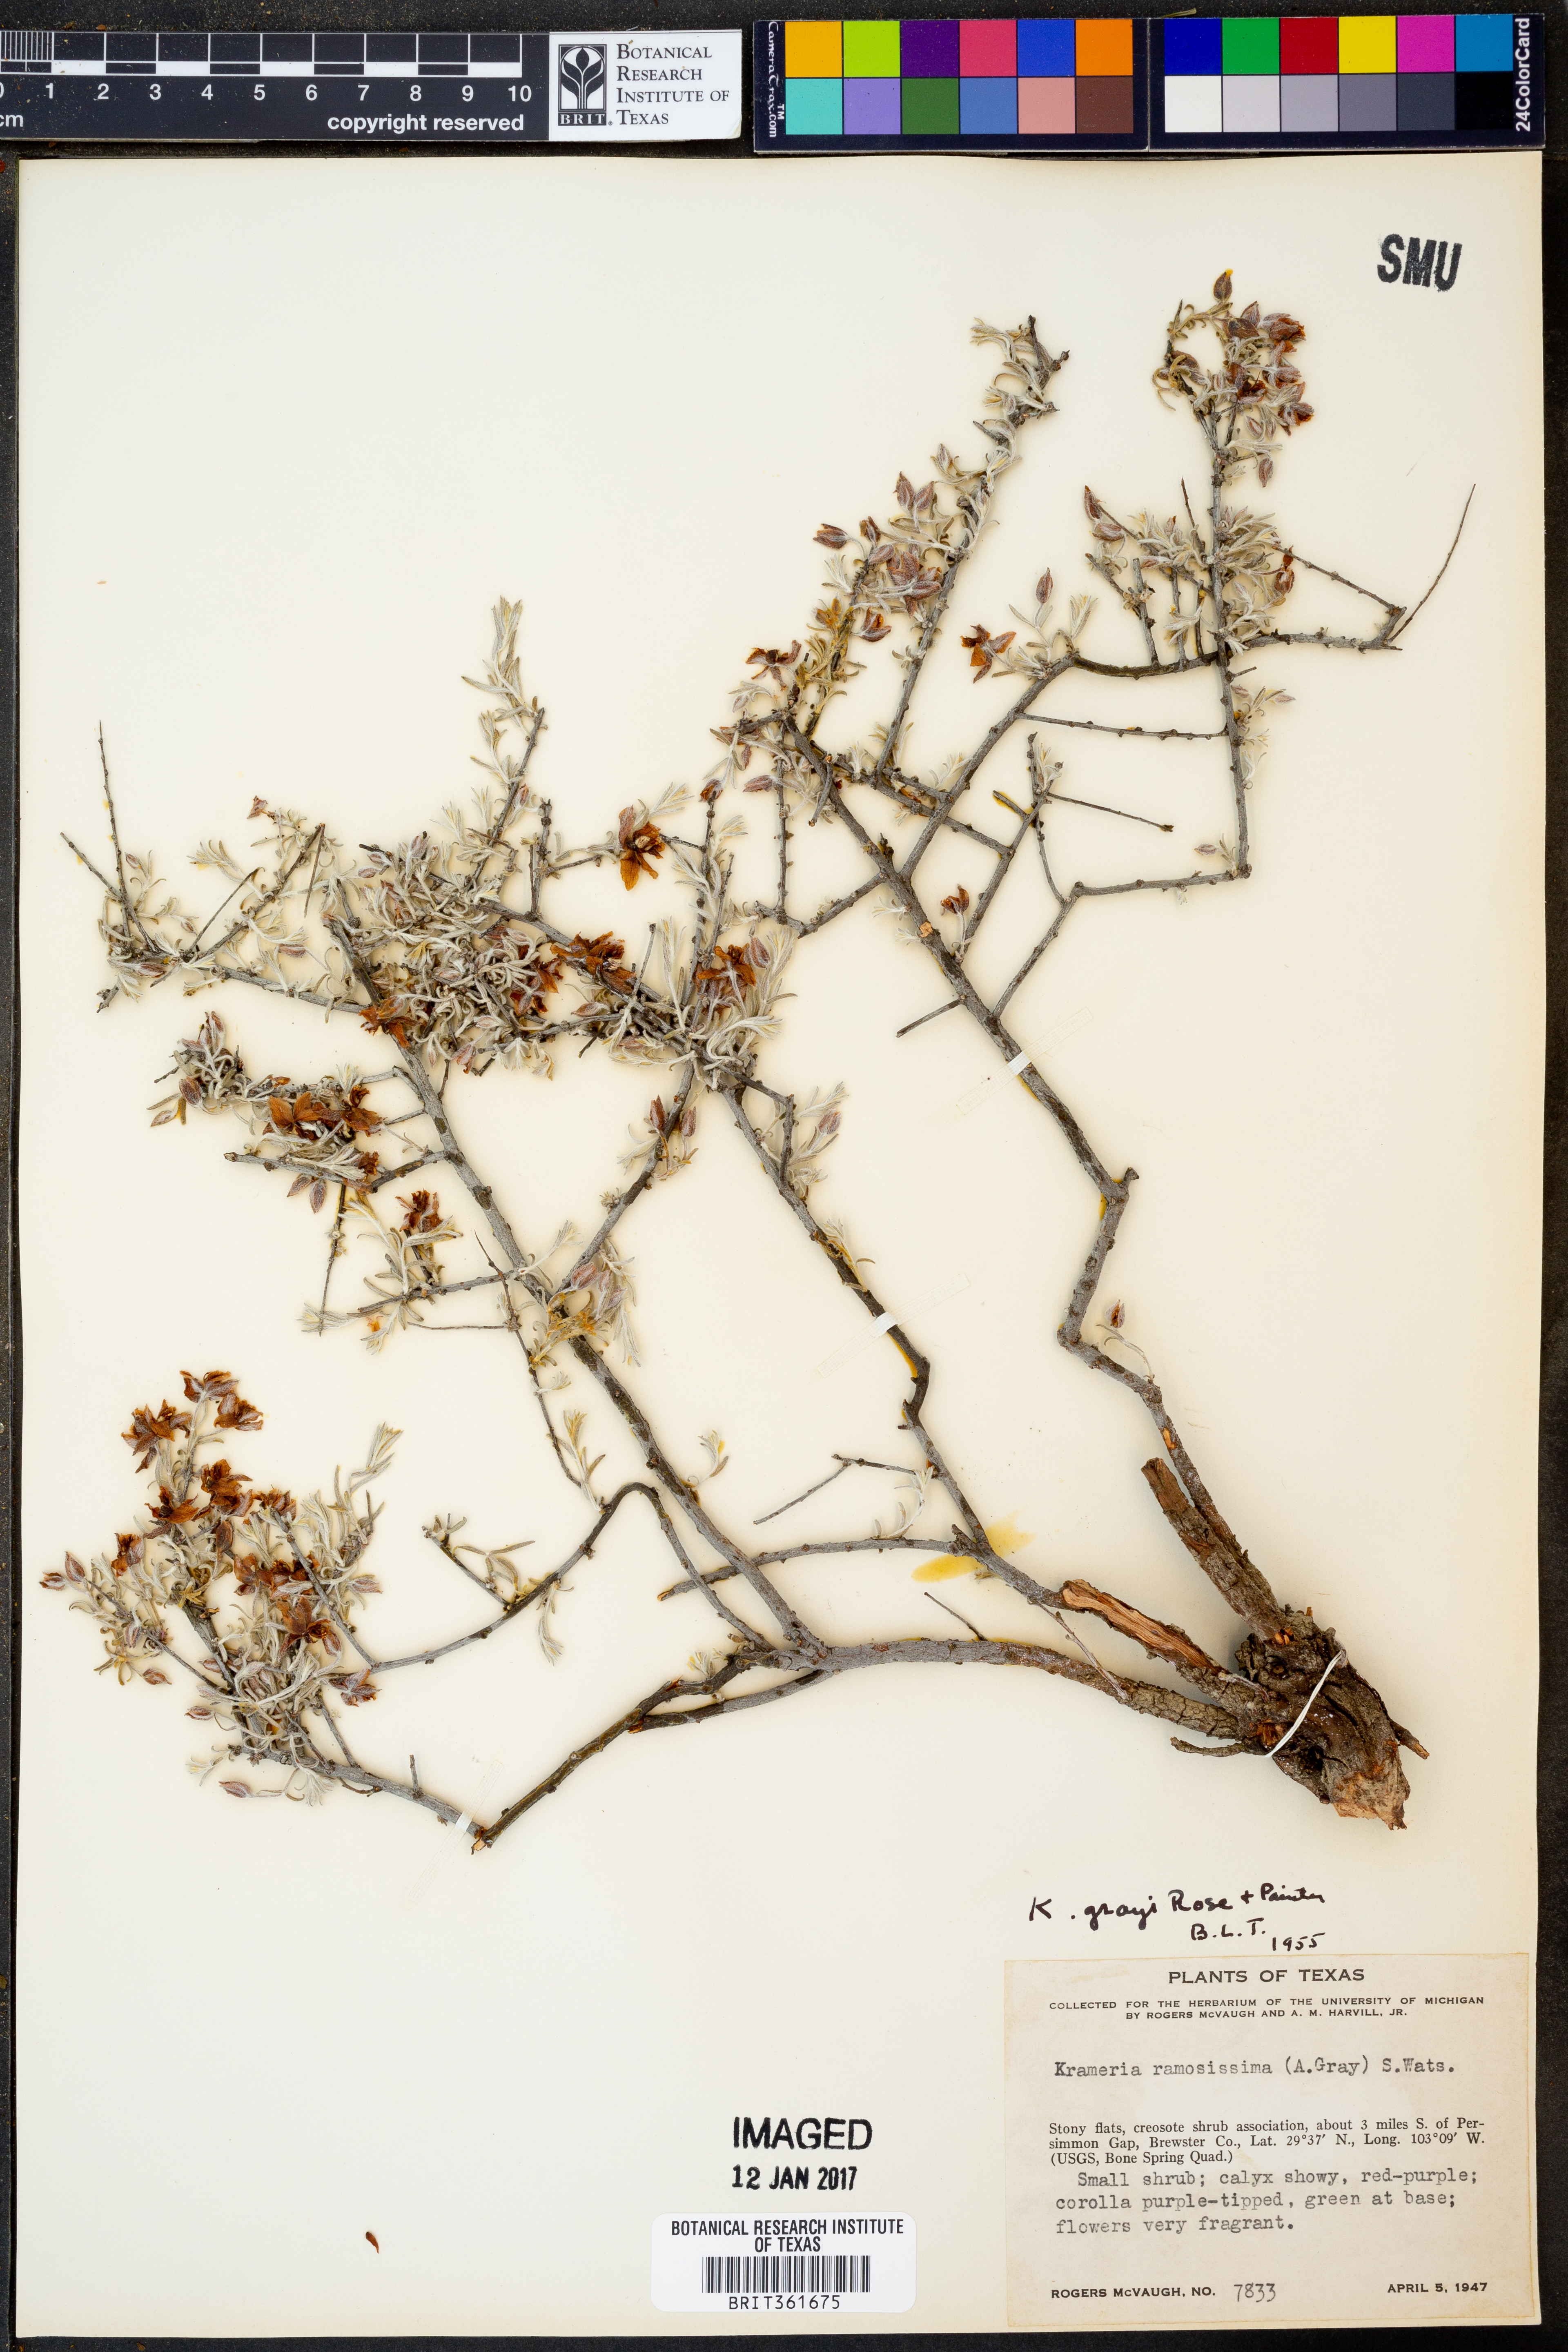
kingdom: Plantae
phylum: Tracheophyta
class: Magnoliopsida
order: Zygophyllales
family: Krameriaceae
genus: Krameria
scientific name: Krameria bicolor
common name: White ratany
